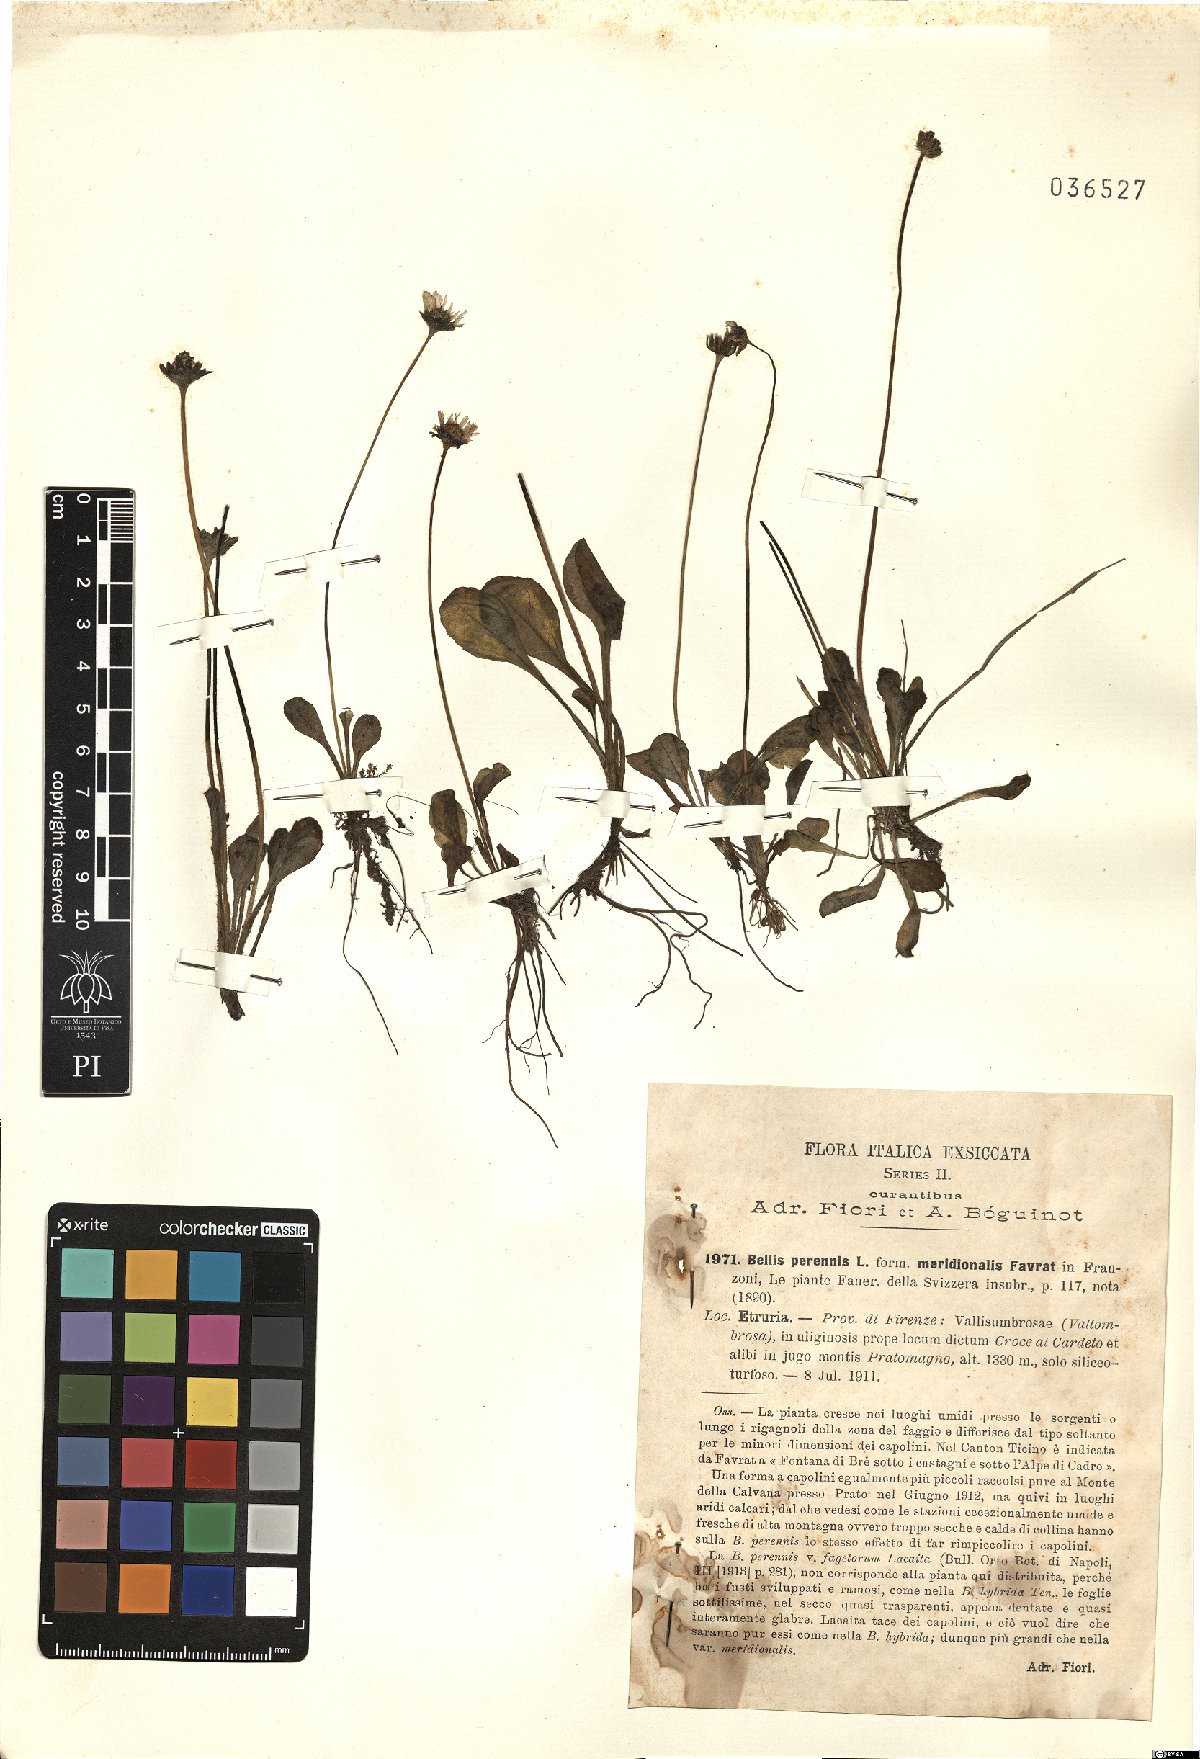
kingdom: Plantae
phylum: Tracheophyta
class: Magnoliopsida
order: Asterales
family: Asteraceae
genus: Bellis
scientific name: Bellis perennis
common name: Lawndaisy
